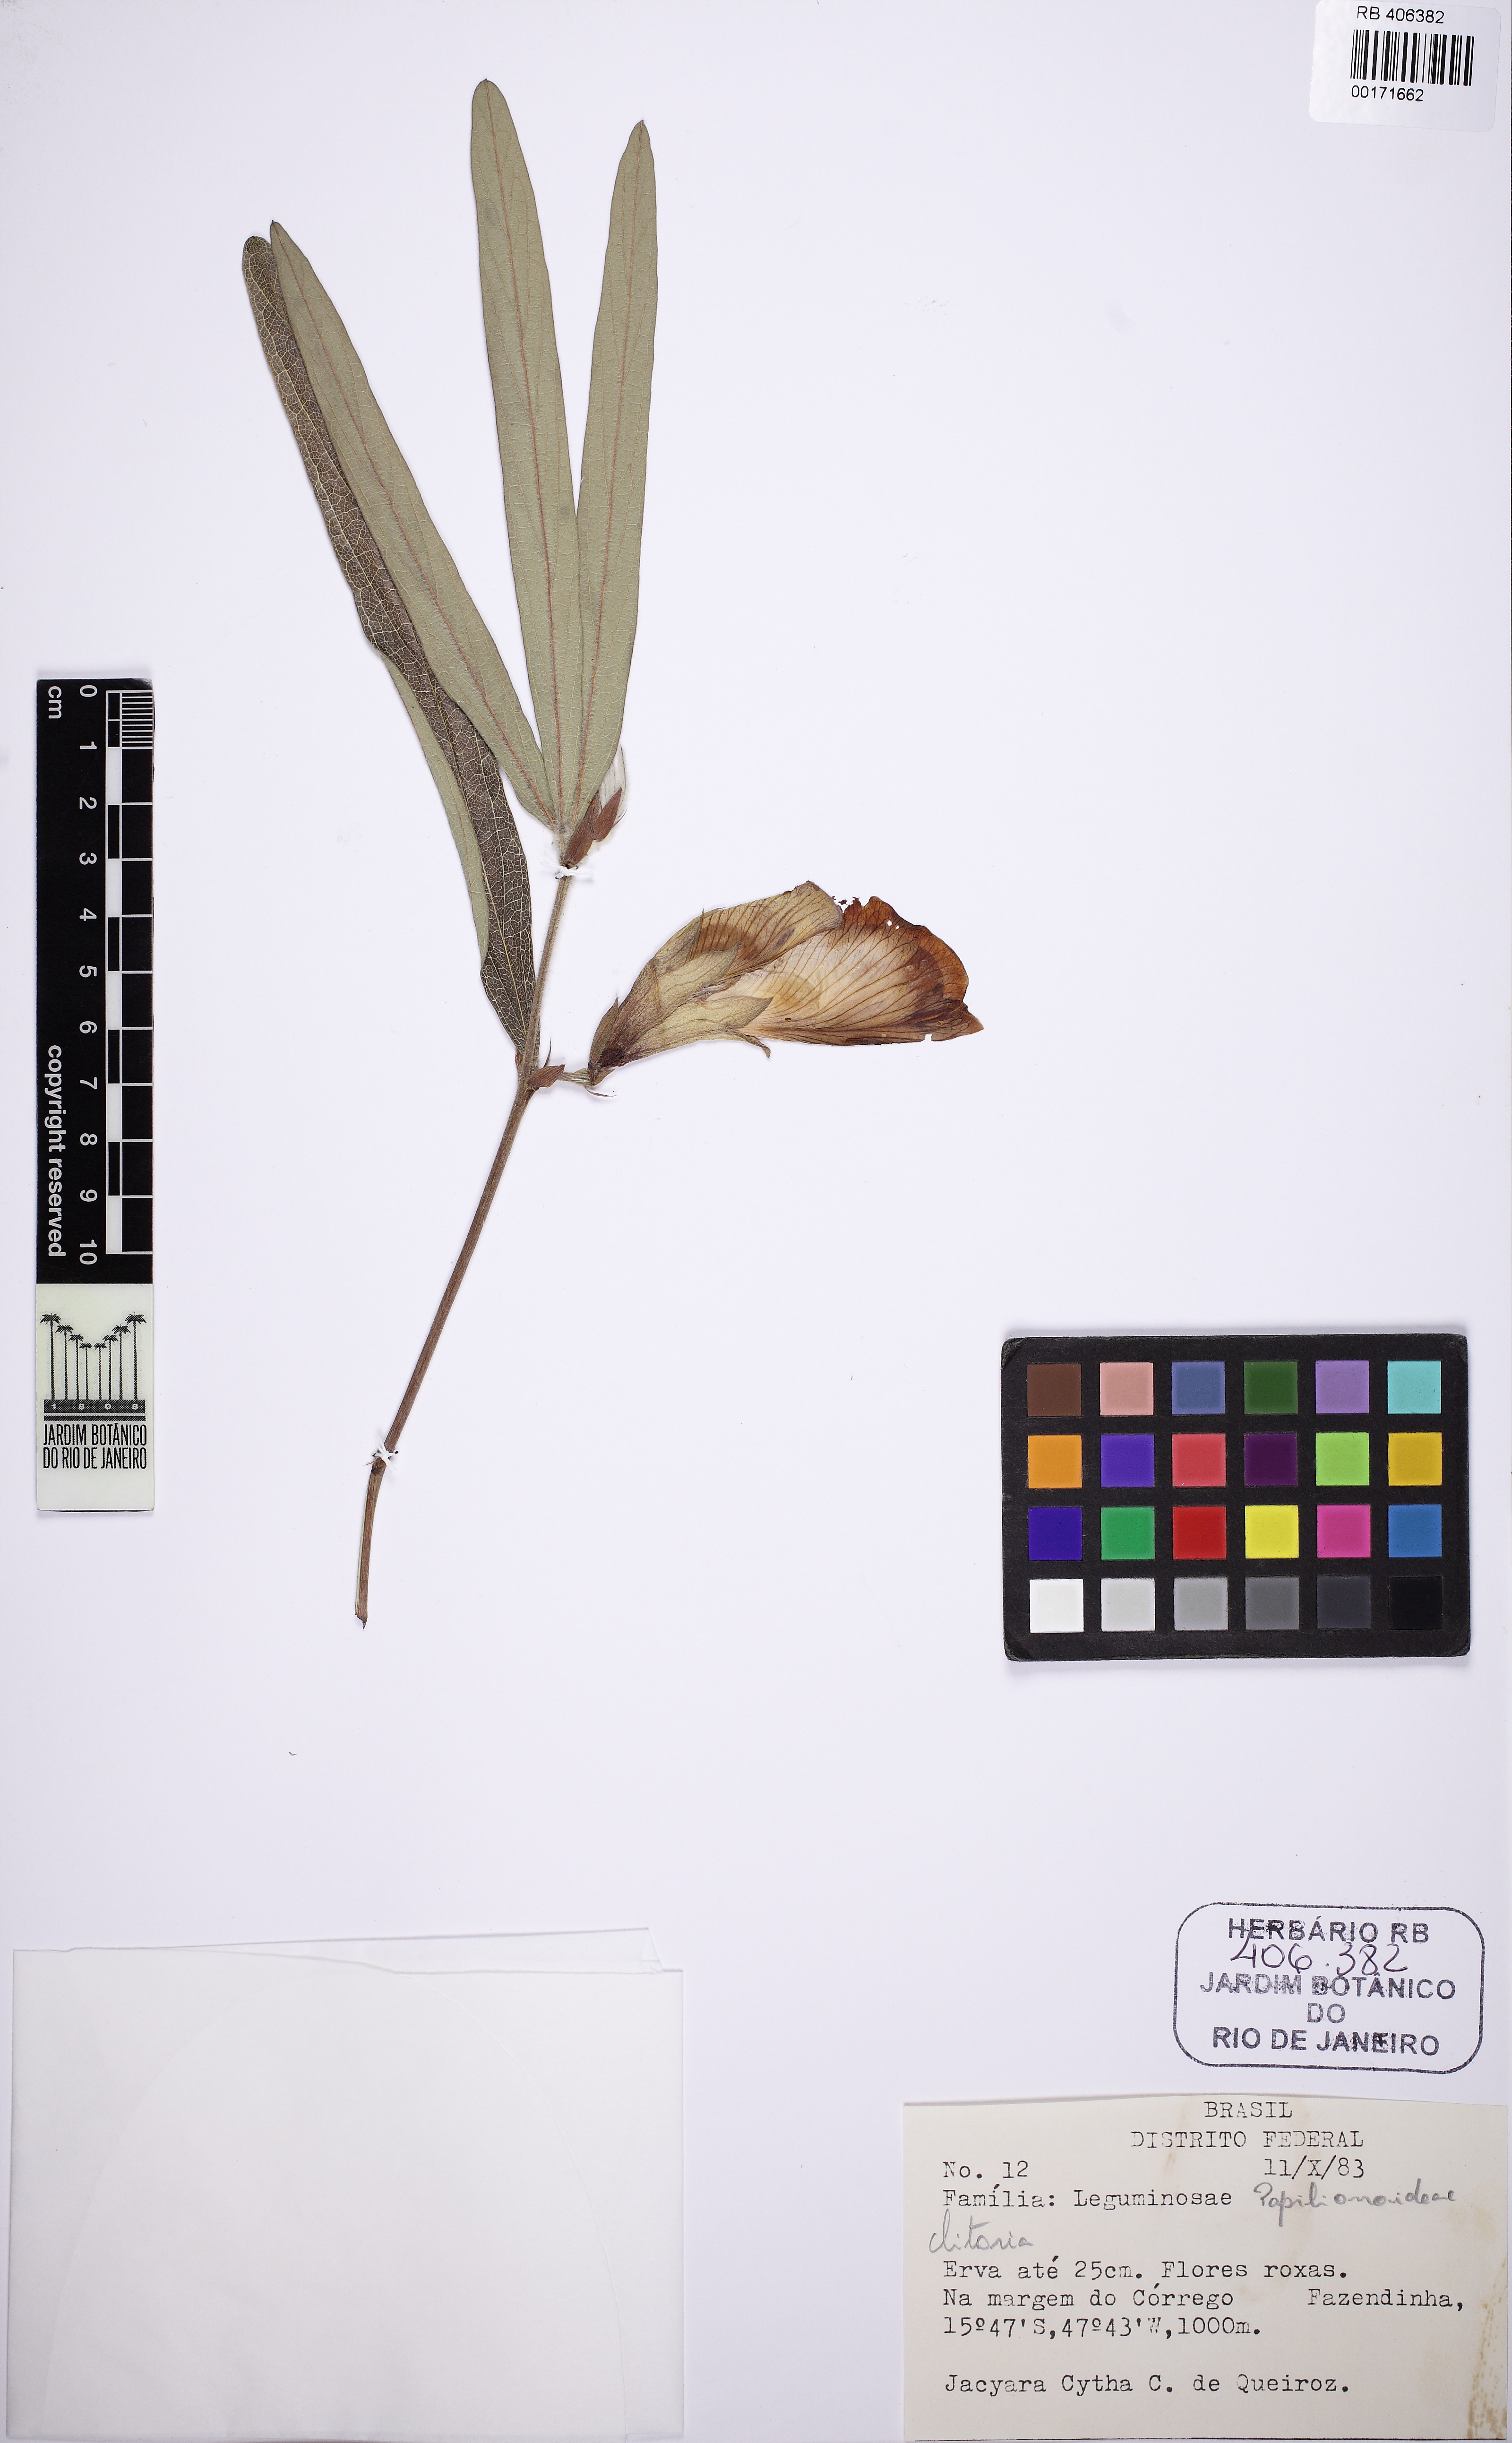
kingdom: Plantae
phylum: Tracheophyta
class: Magnoliopsida
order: Fabales
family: Fabaceae
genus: Clitoria
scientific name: Clitoria guianensis
